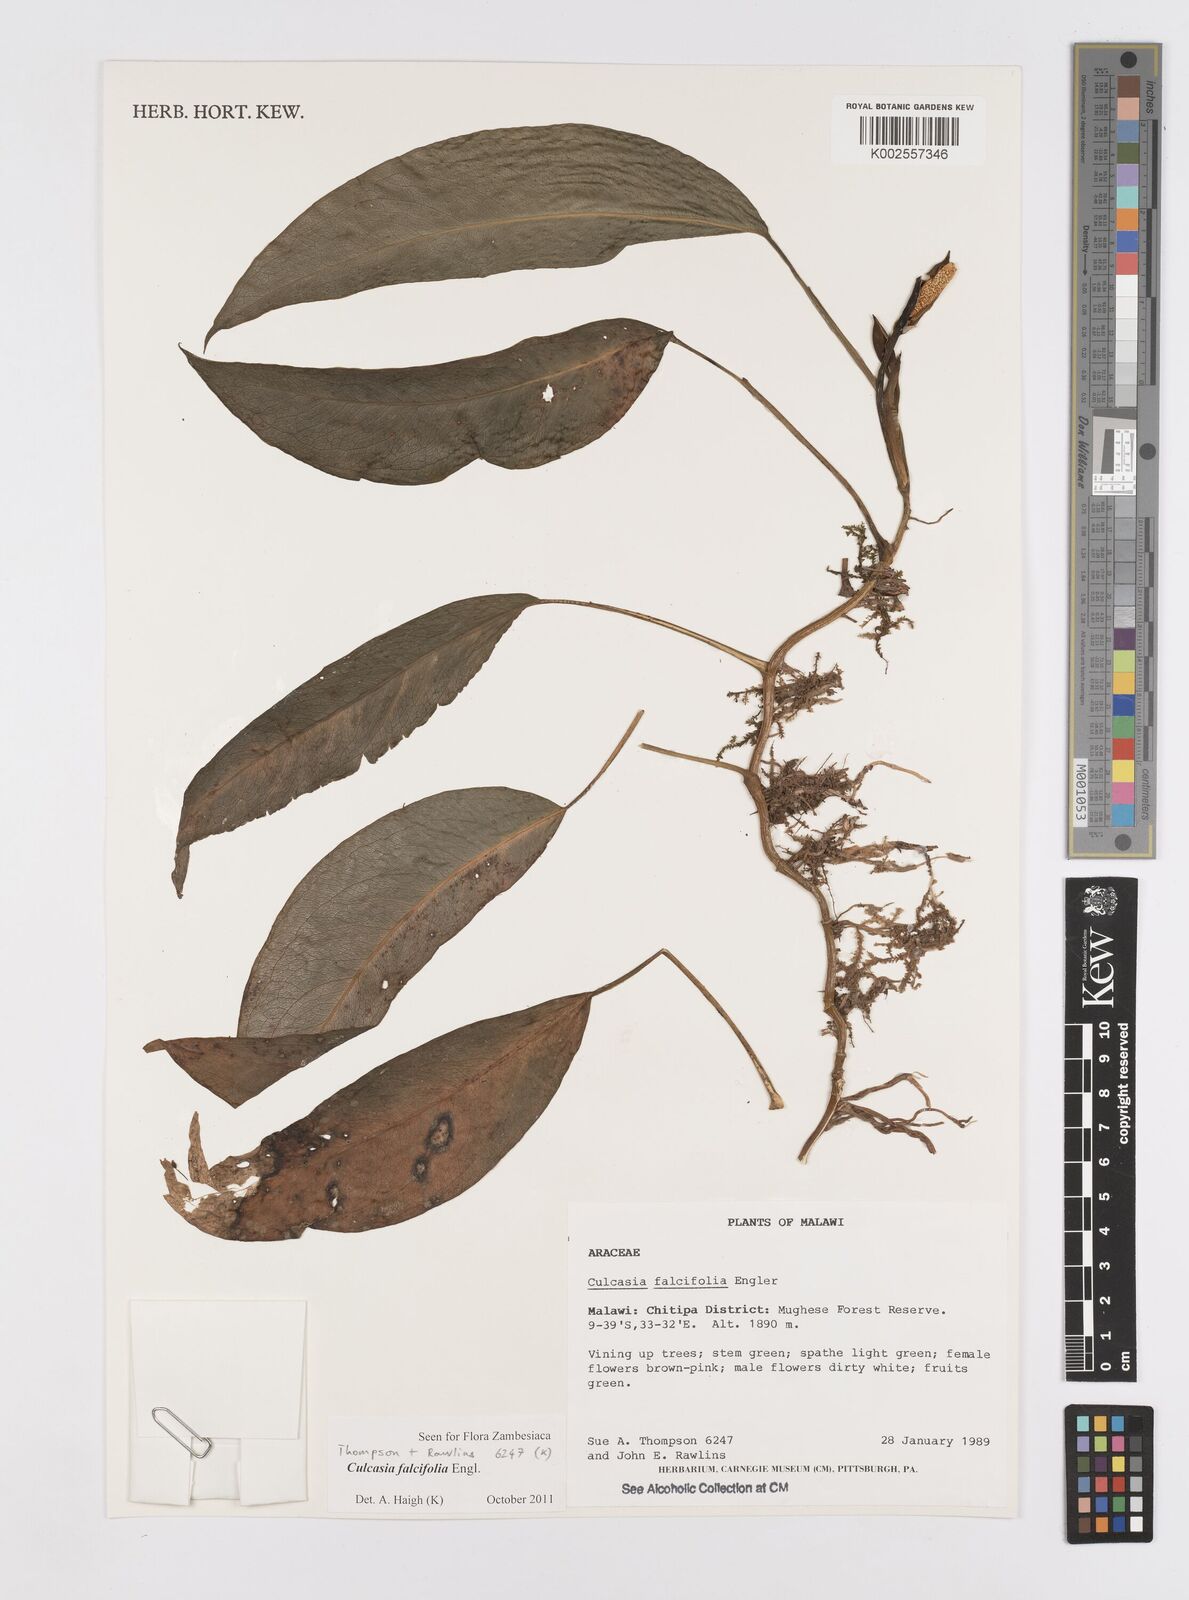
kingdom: Plantae
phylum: Tracheophyta
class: Liliopsida
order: Alismatales
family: Araceae
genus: Culcasia
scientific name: Culcasia falcifolia
